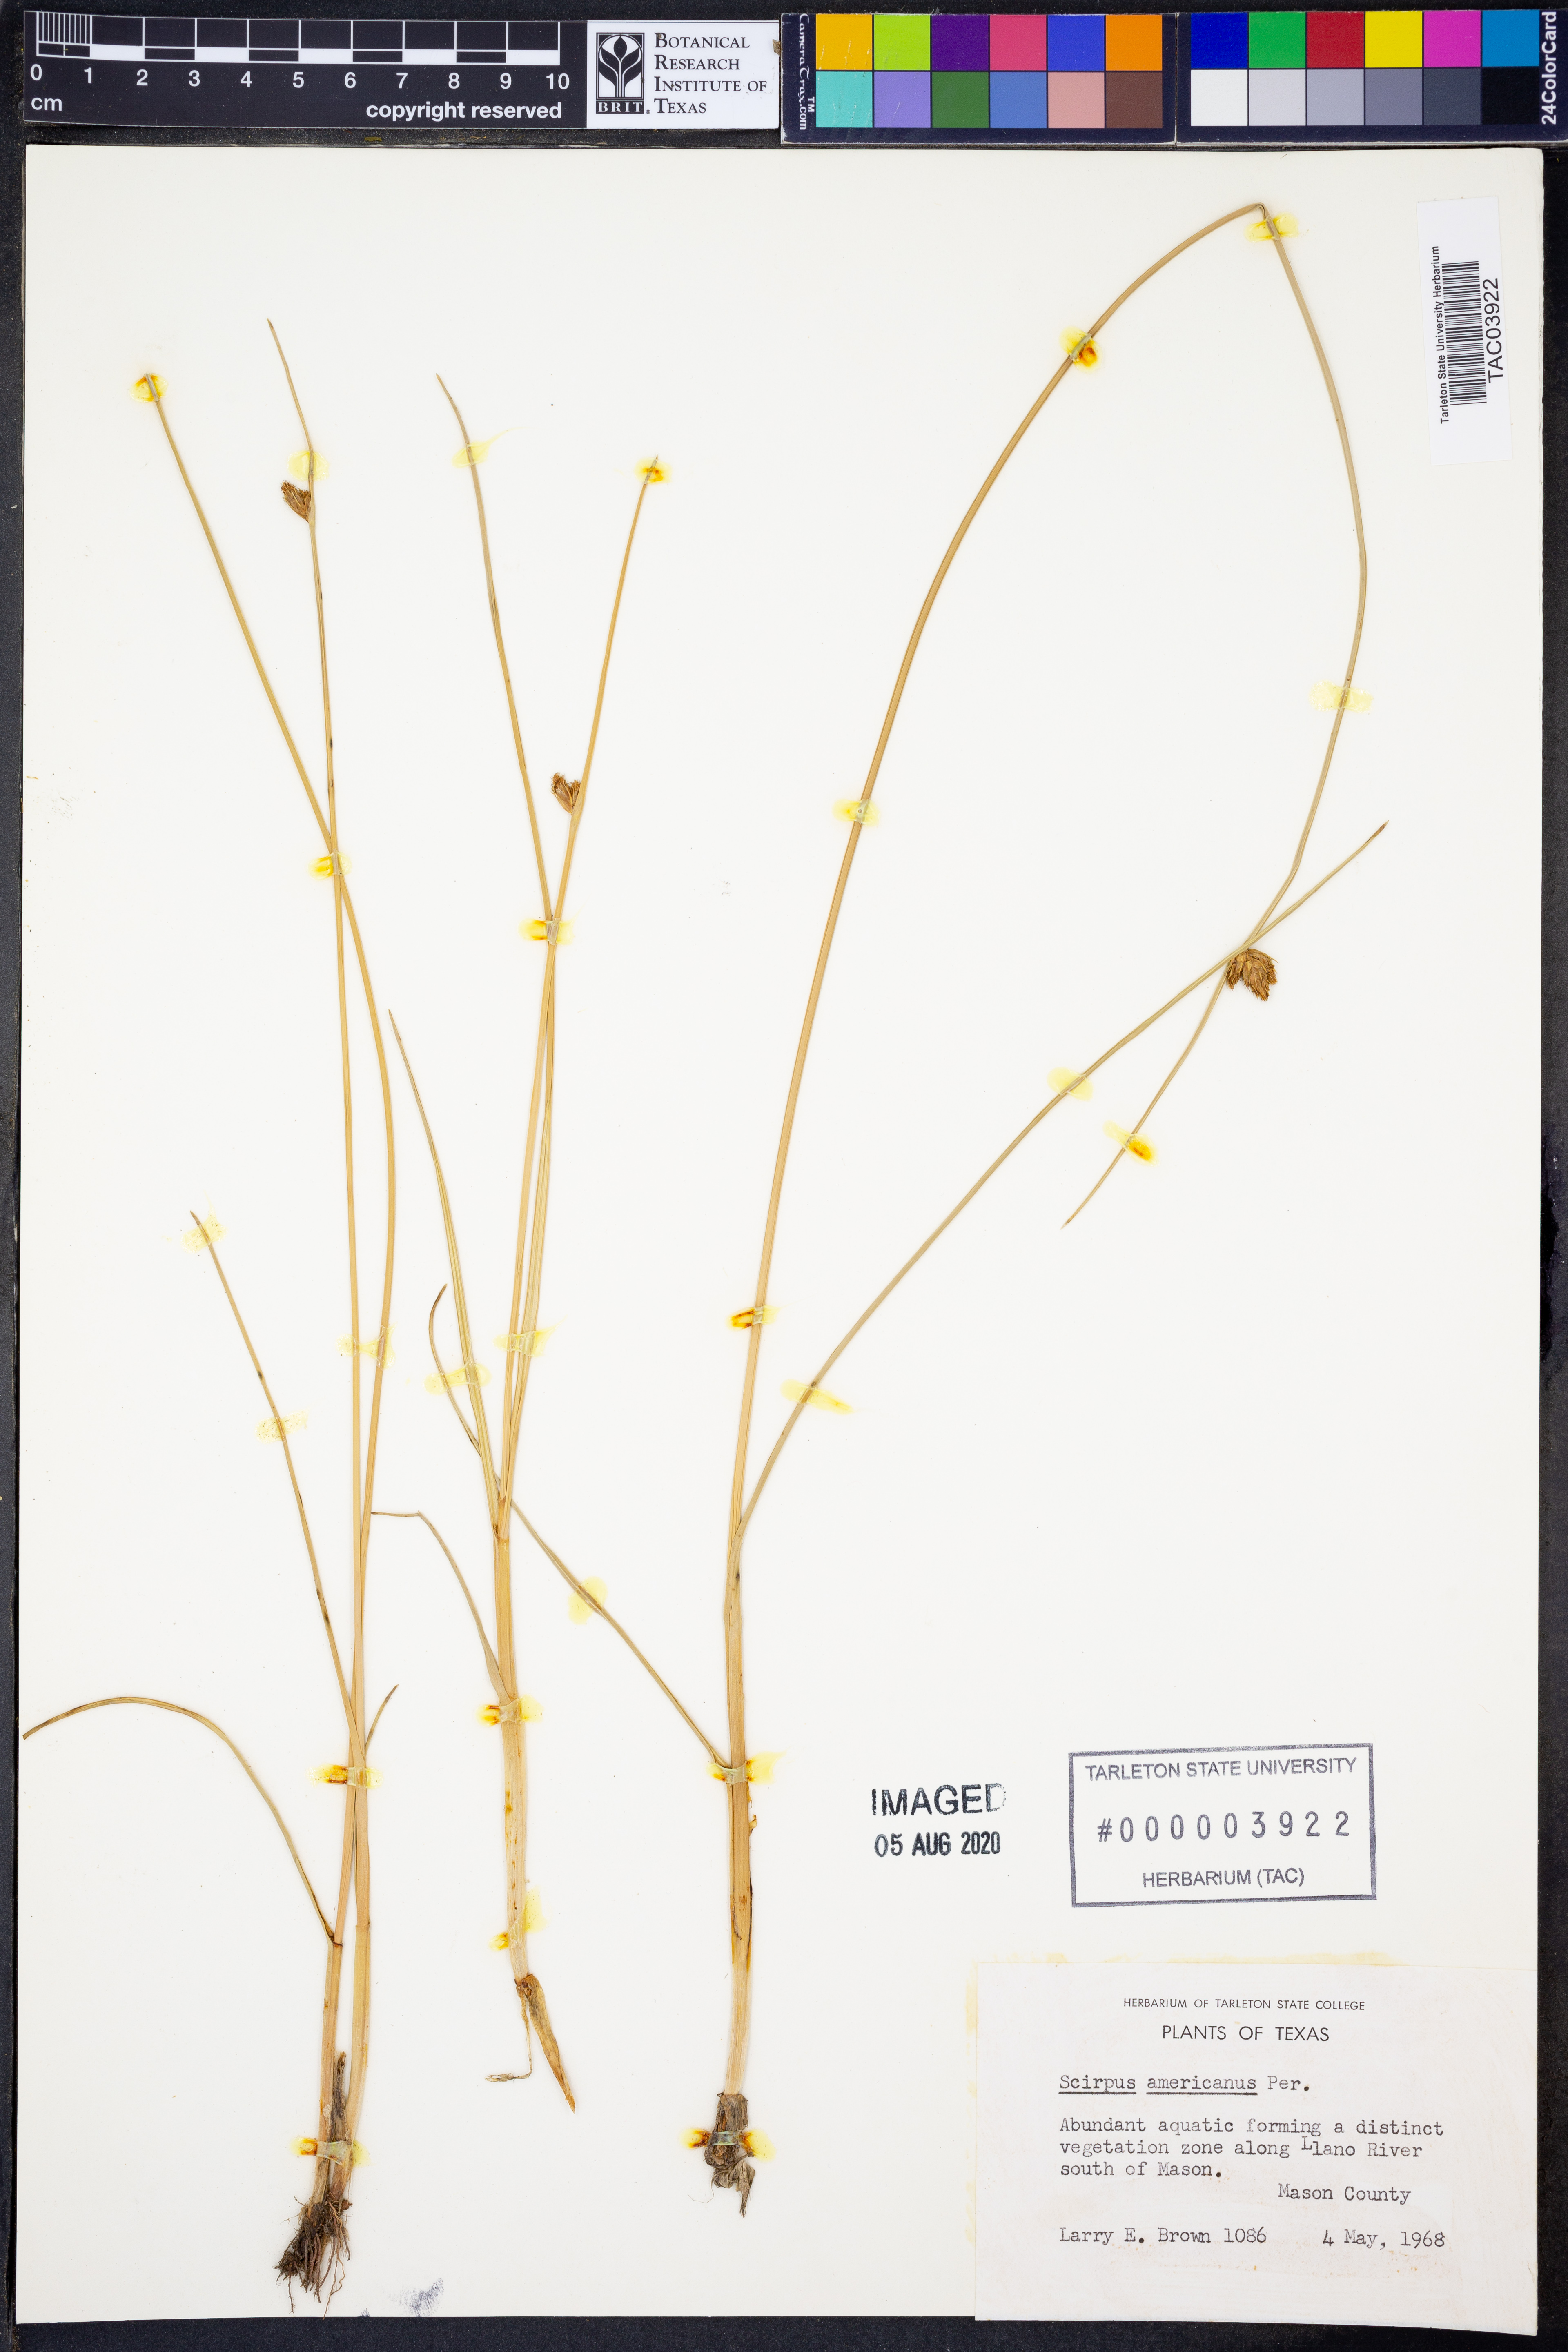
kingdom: Plantae
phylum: Tracheophyta
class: Liliopsida
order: Poales
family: Cyperaceae
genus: Schoenoplectus
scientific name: Schoenoplectus americanus
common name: American three-square bulrush
